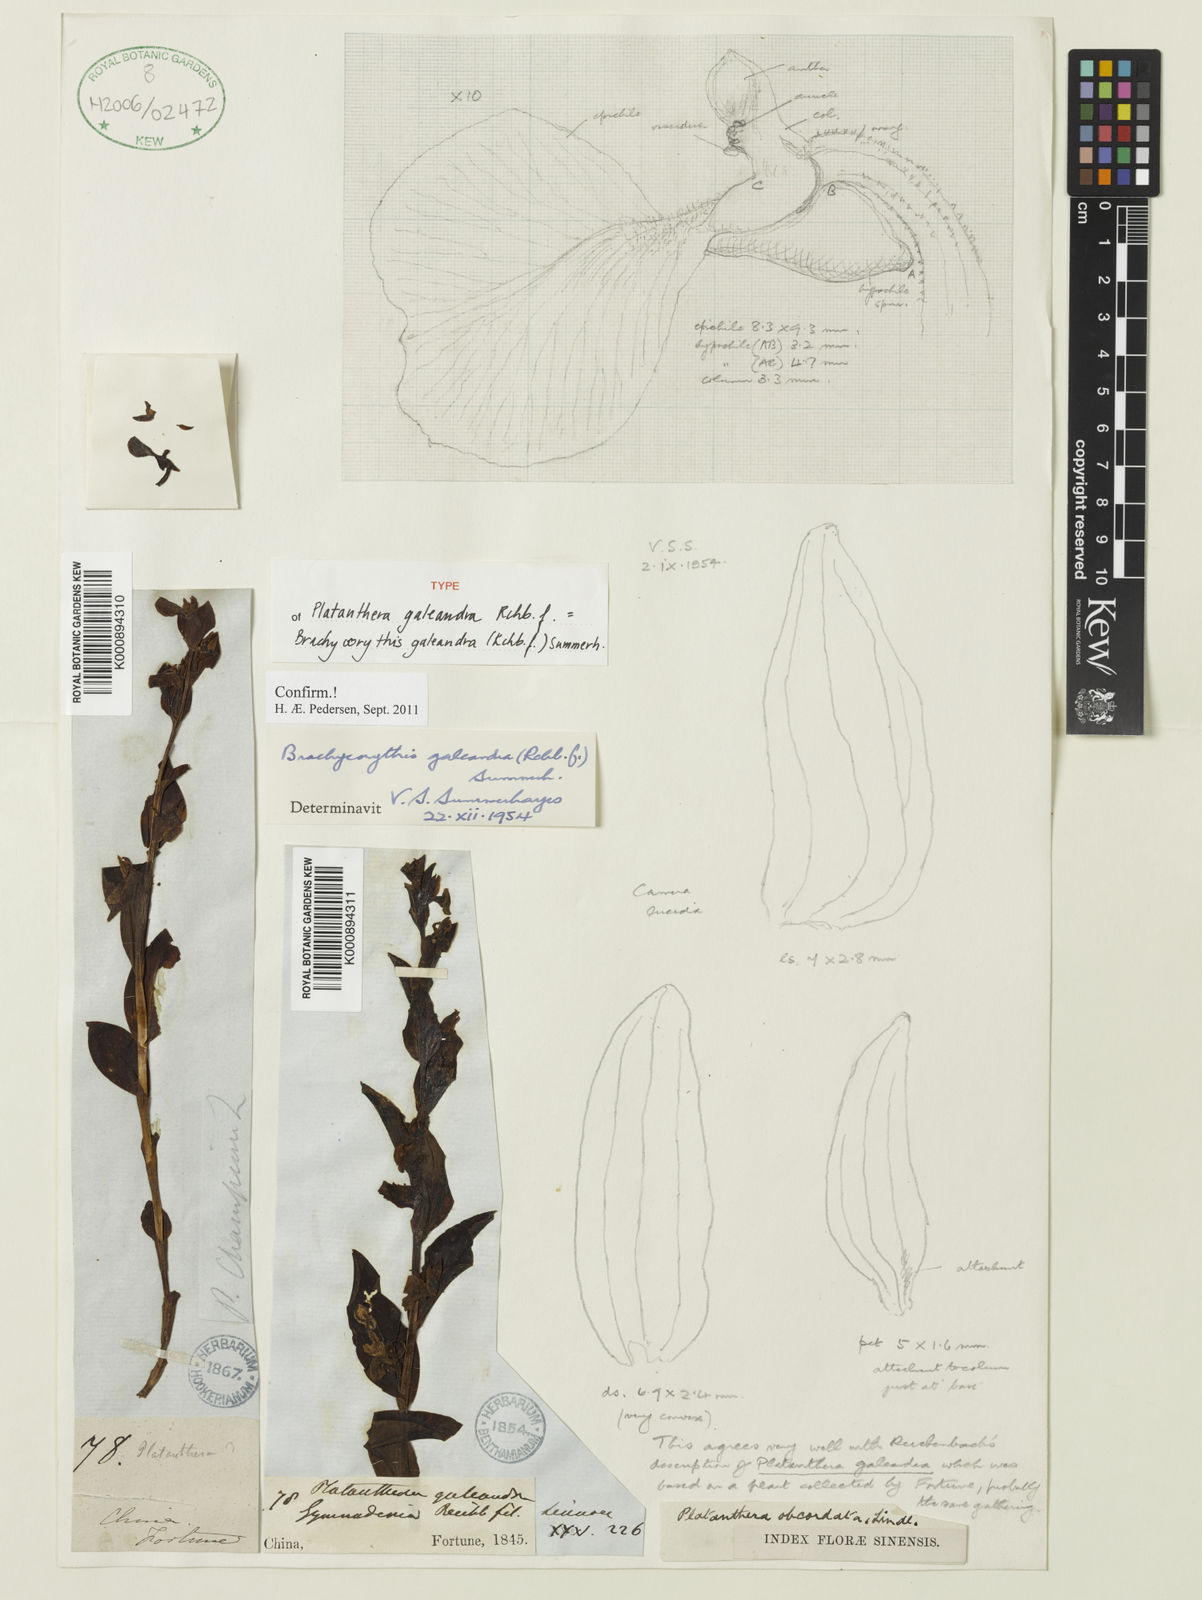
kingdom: Plantae
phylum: Tracheophyta
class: Liliopsida
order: Asparagales
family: Orchidaceae
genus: Brachycorythis
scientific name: Brachycorythis galeandra
